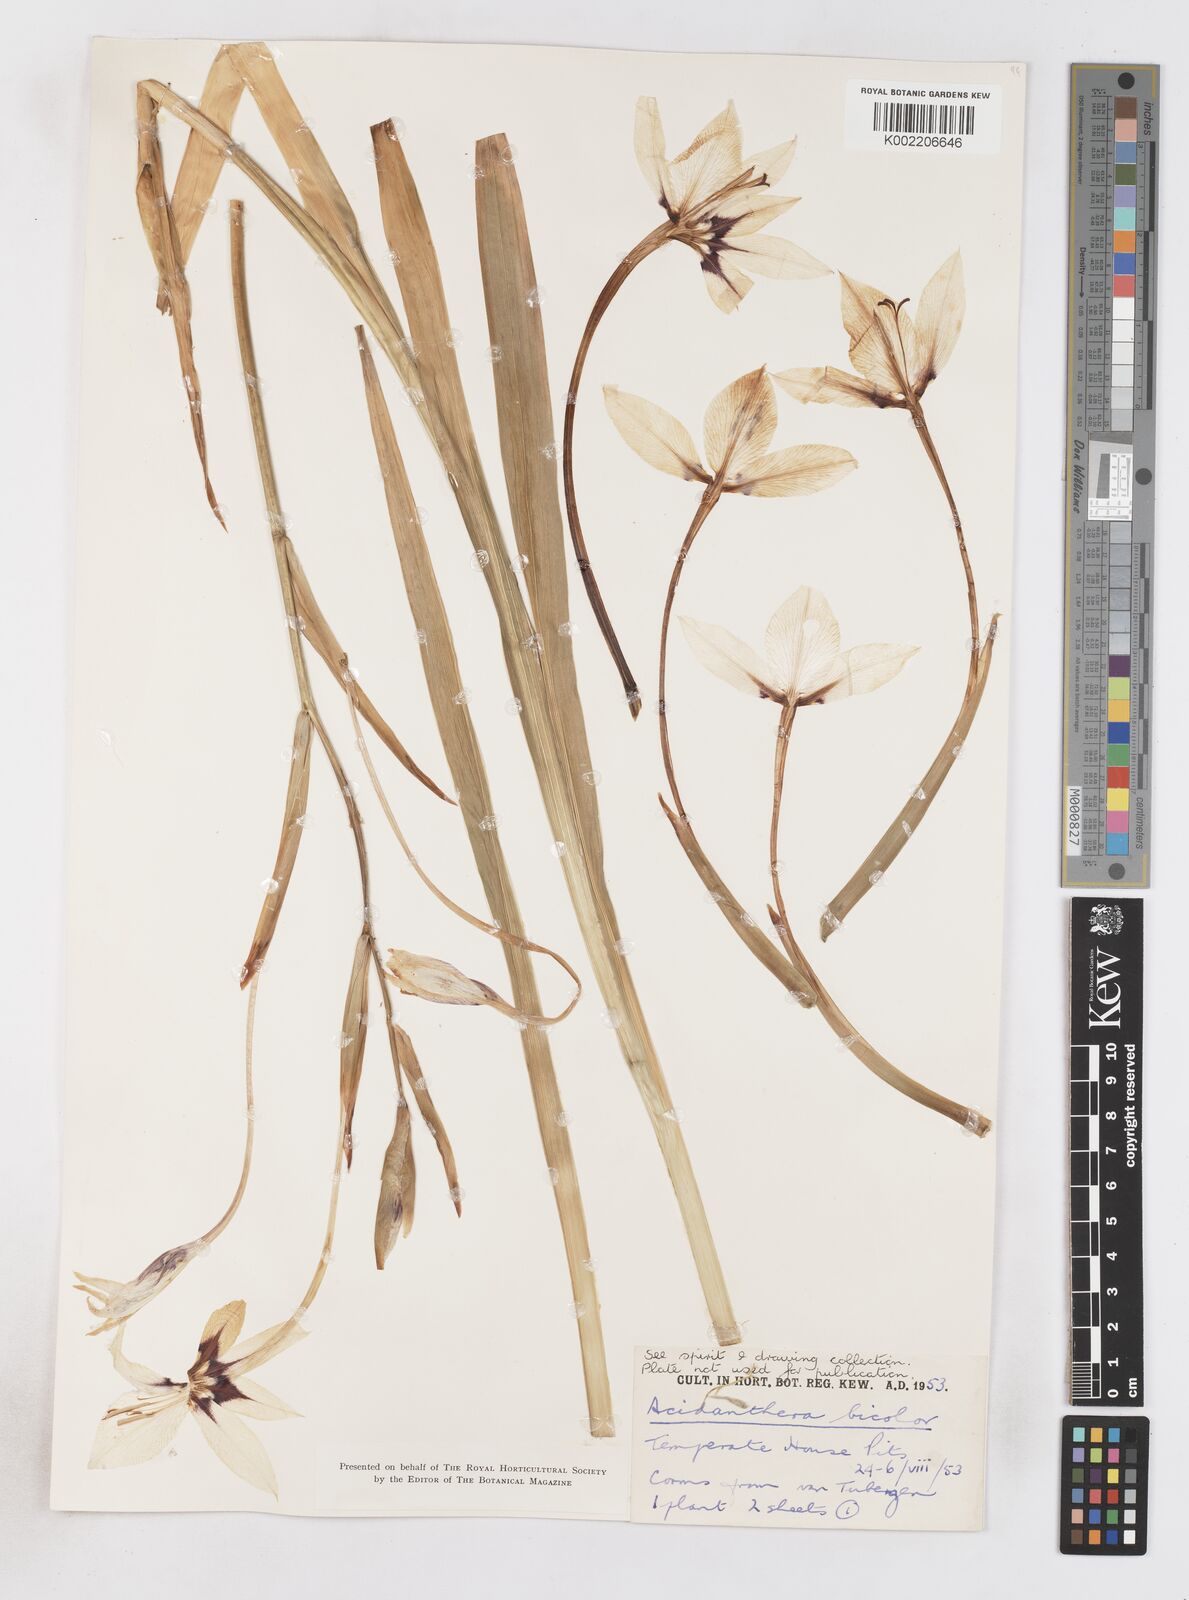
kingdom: Plantae
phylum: Tracheophyta
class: Liliopsida
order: Asparagales
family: Iridaceae
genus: Gladiolus
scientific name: Gladiolus murielae
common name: Acidanthera
